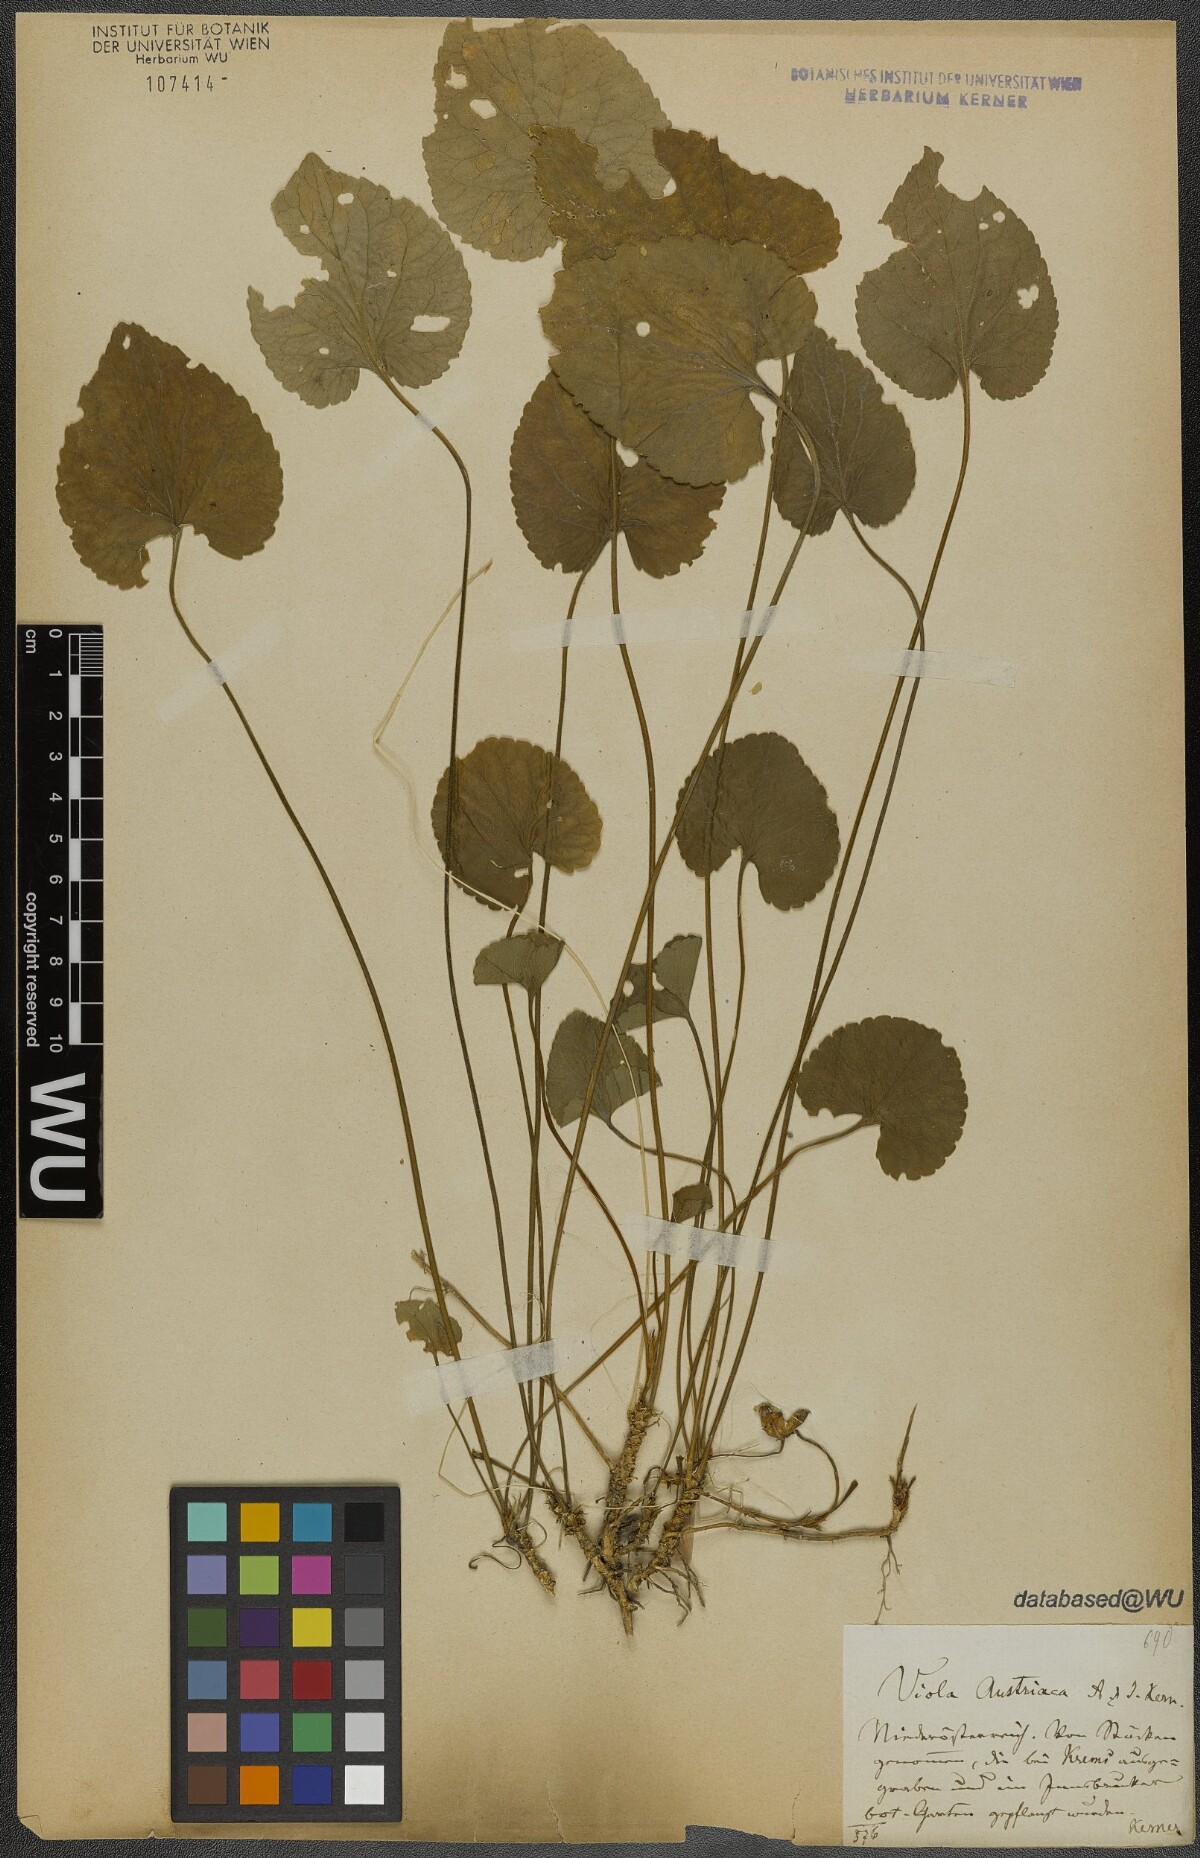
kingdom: Plantae
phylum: Tracheophyta
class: Magnoliopsida
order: Malpighiales
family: Violaceae
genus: Viola
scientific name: Viola suavis
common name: Russian violet
